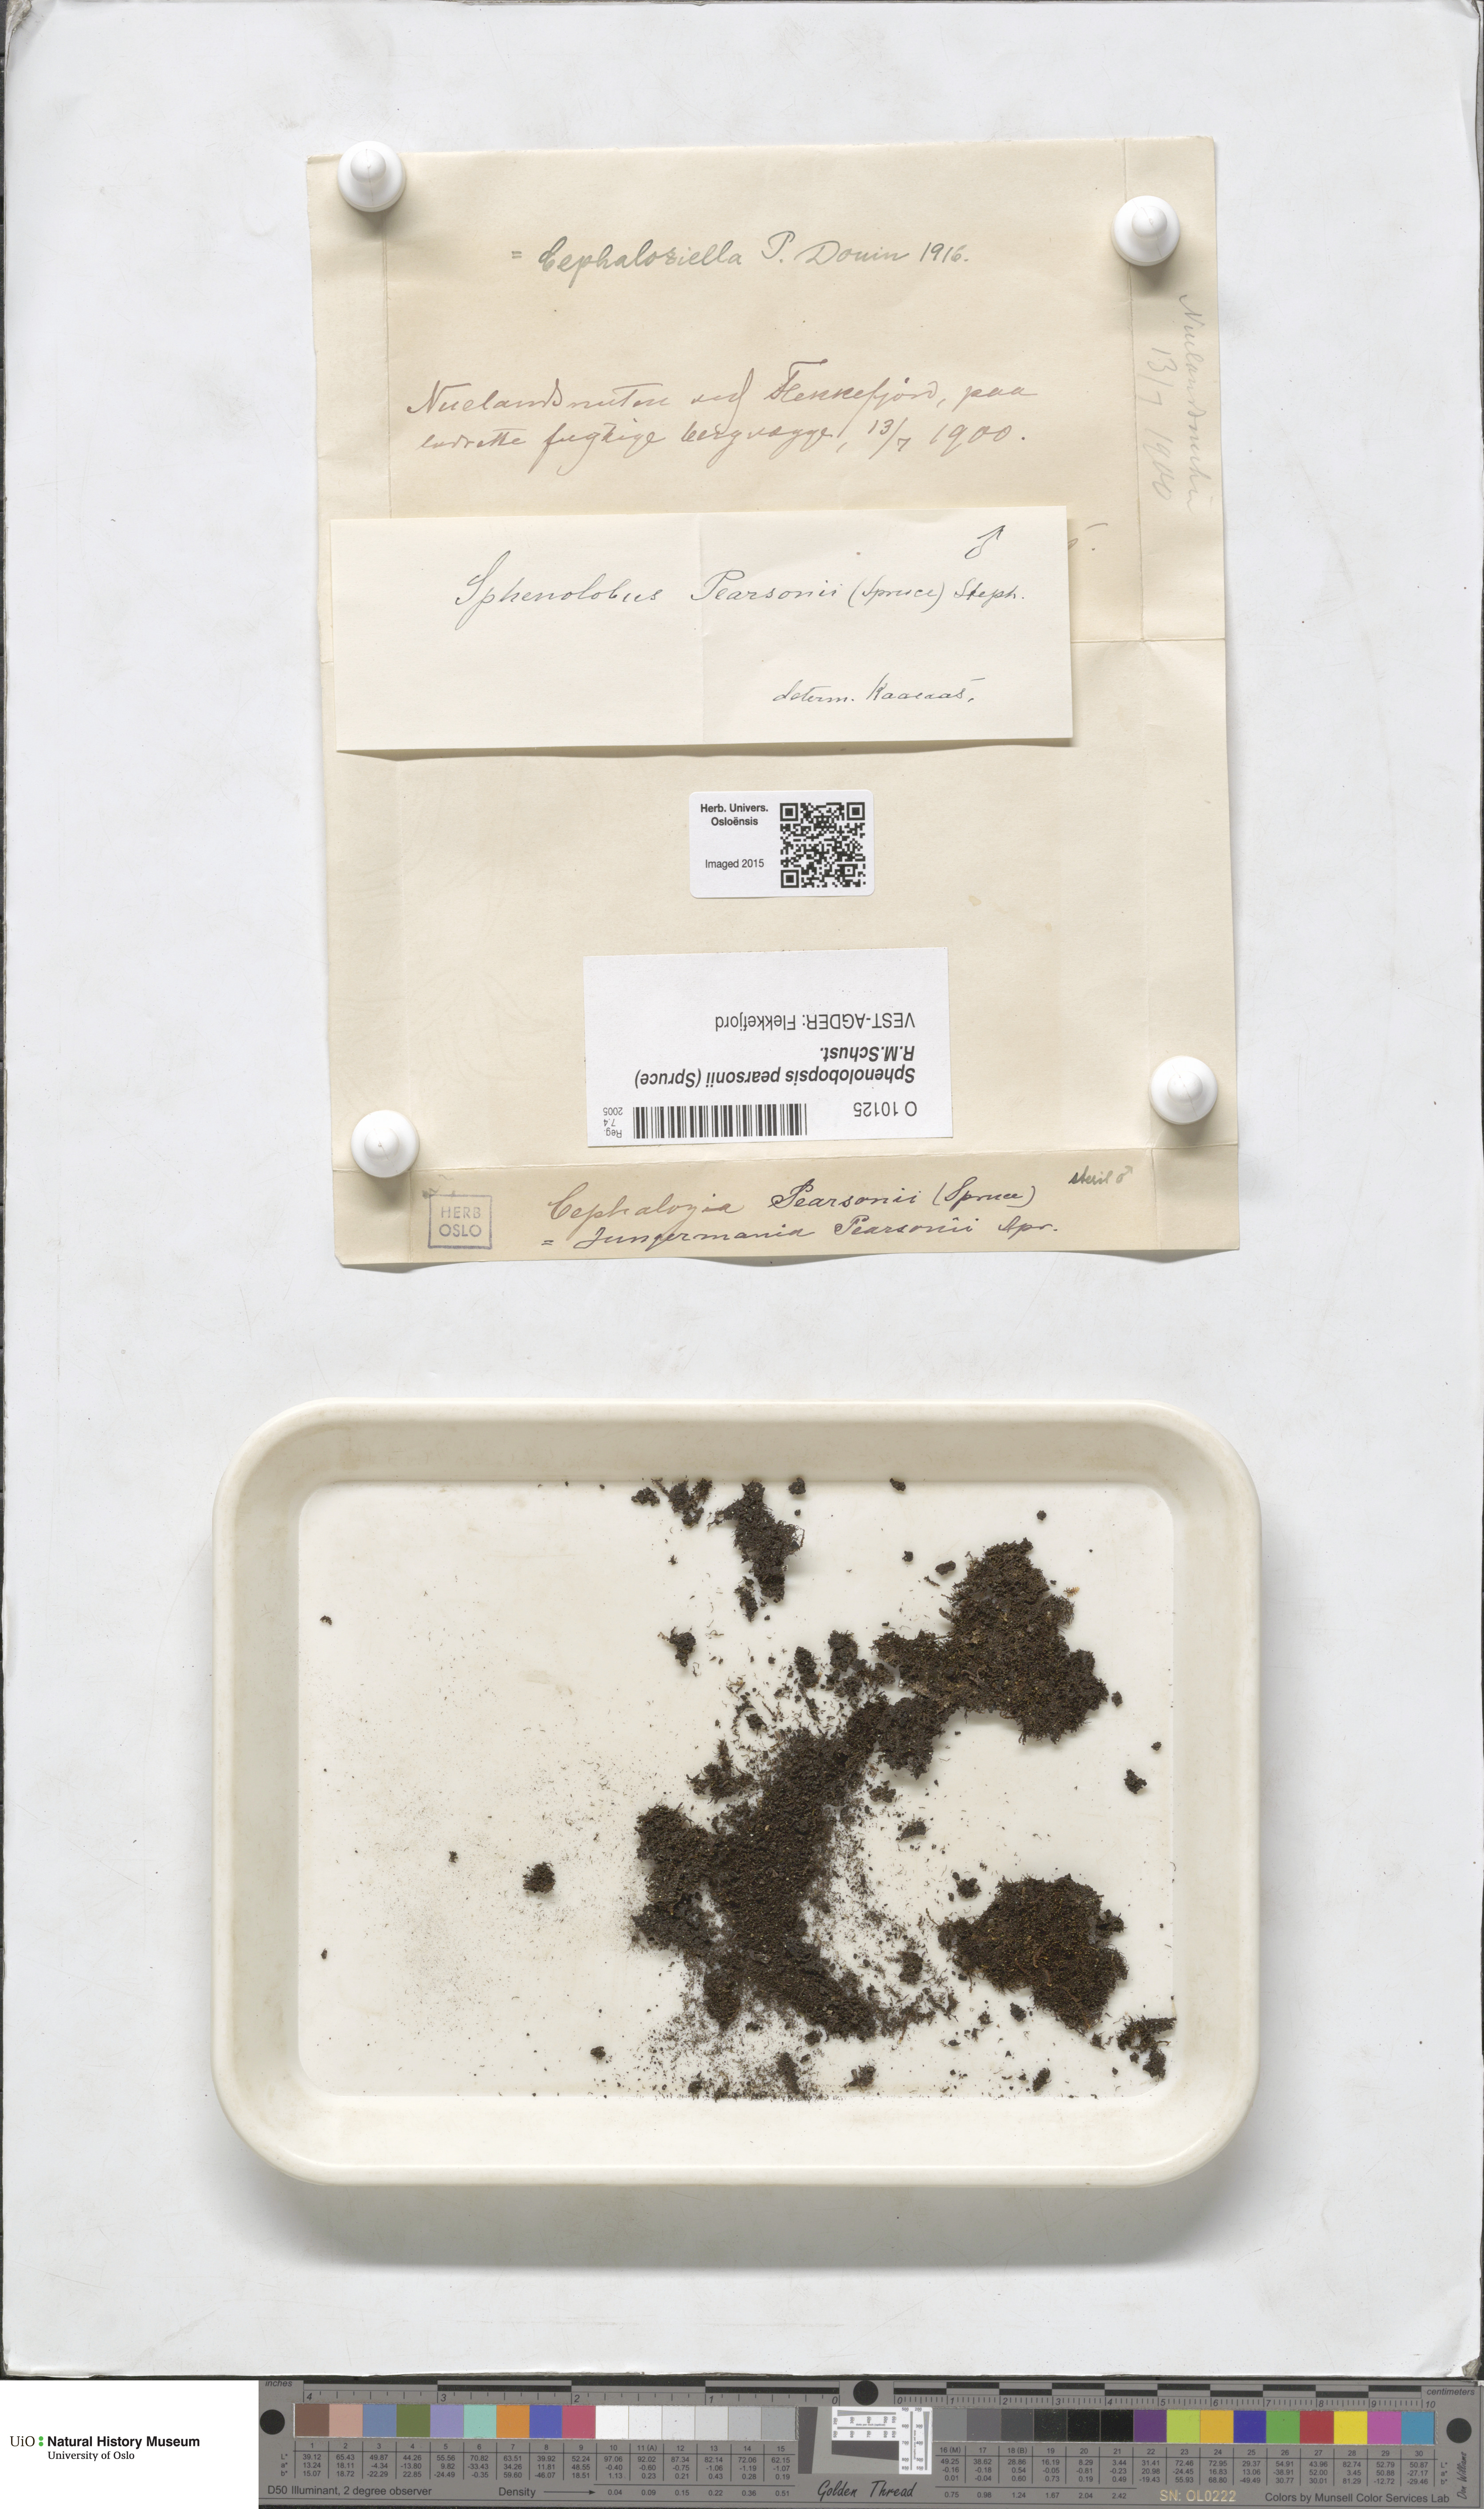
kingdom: Plantae
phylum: Marchantiophyta
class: Jungermanniopsida
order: Jungermanniales
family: Anastrophyllaceae
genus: Sphenolobopsis
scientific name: Sphenolobopsis pearsonii
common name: Horsehair threadwort
